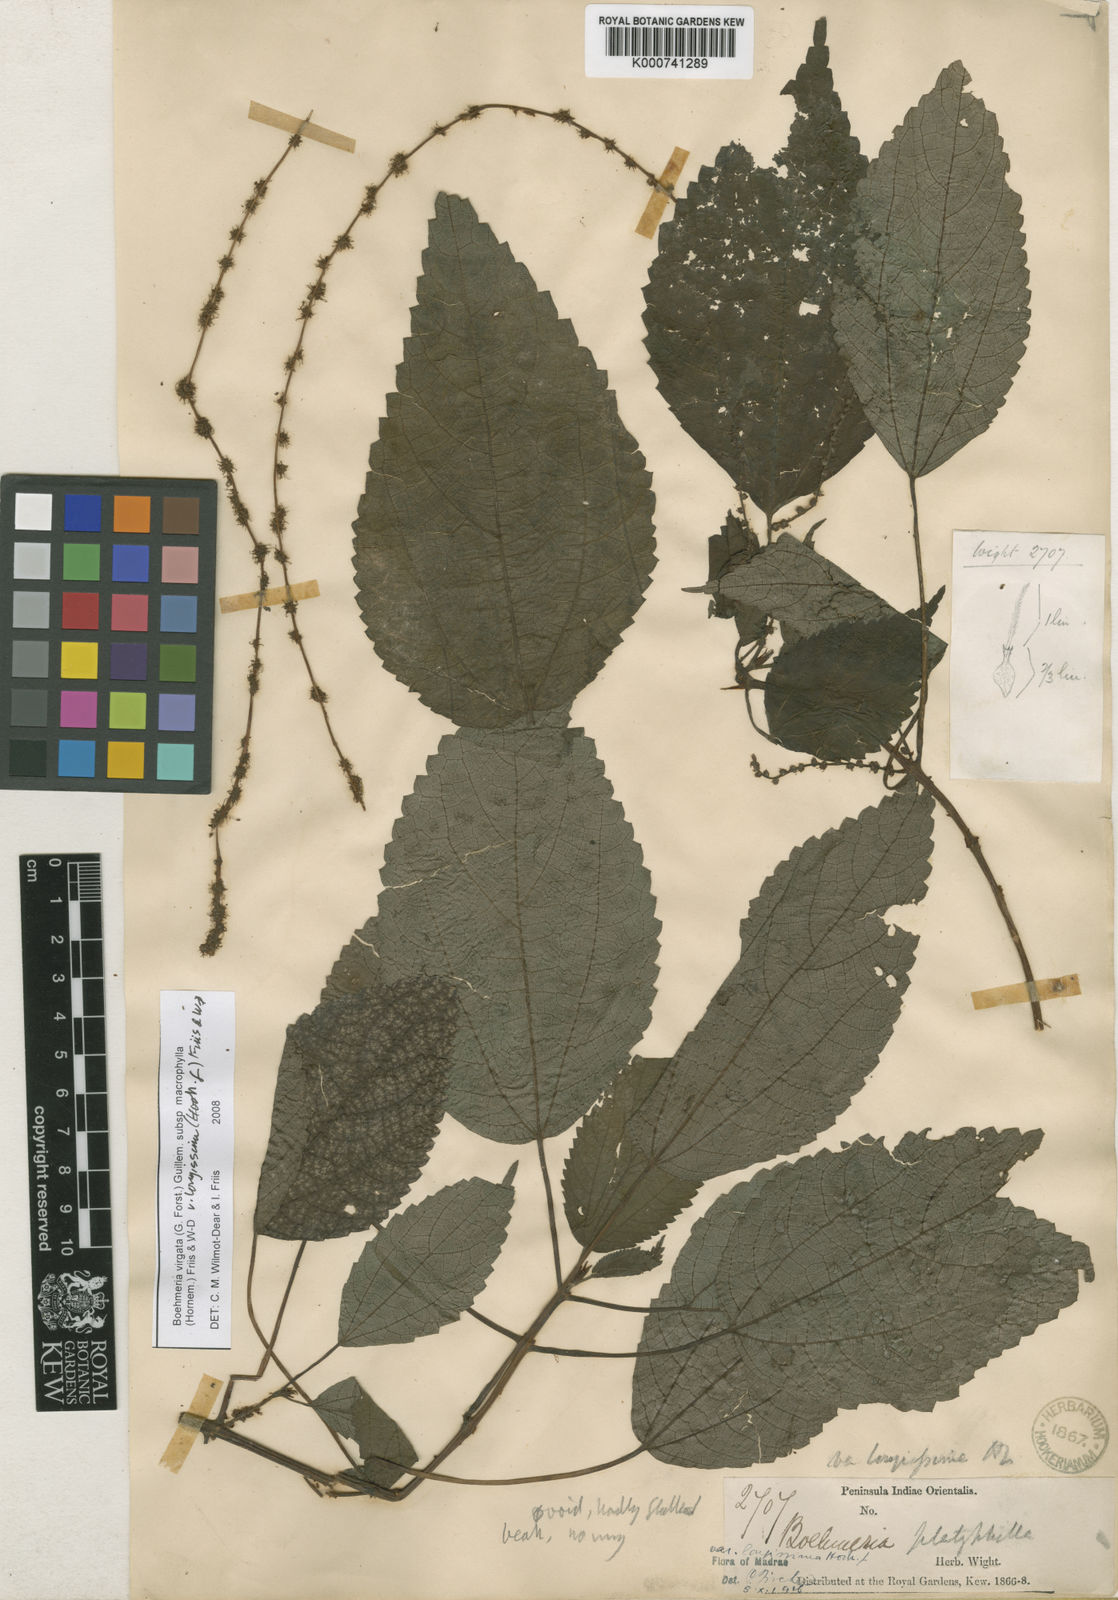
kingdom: Plantae
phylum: Tracheophyta
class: Magnoliopsida
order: Rosales
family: Urticaceae
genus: Boehmeria
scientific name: Boehmeria virgata
